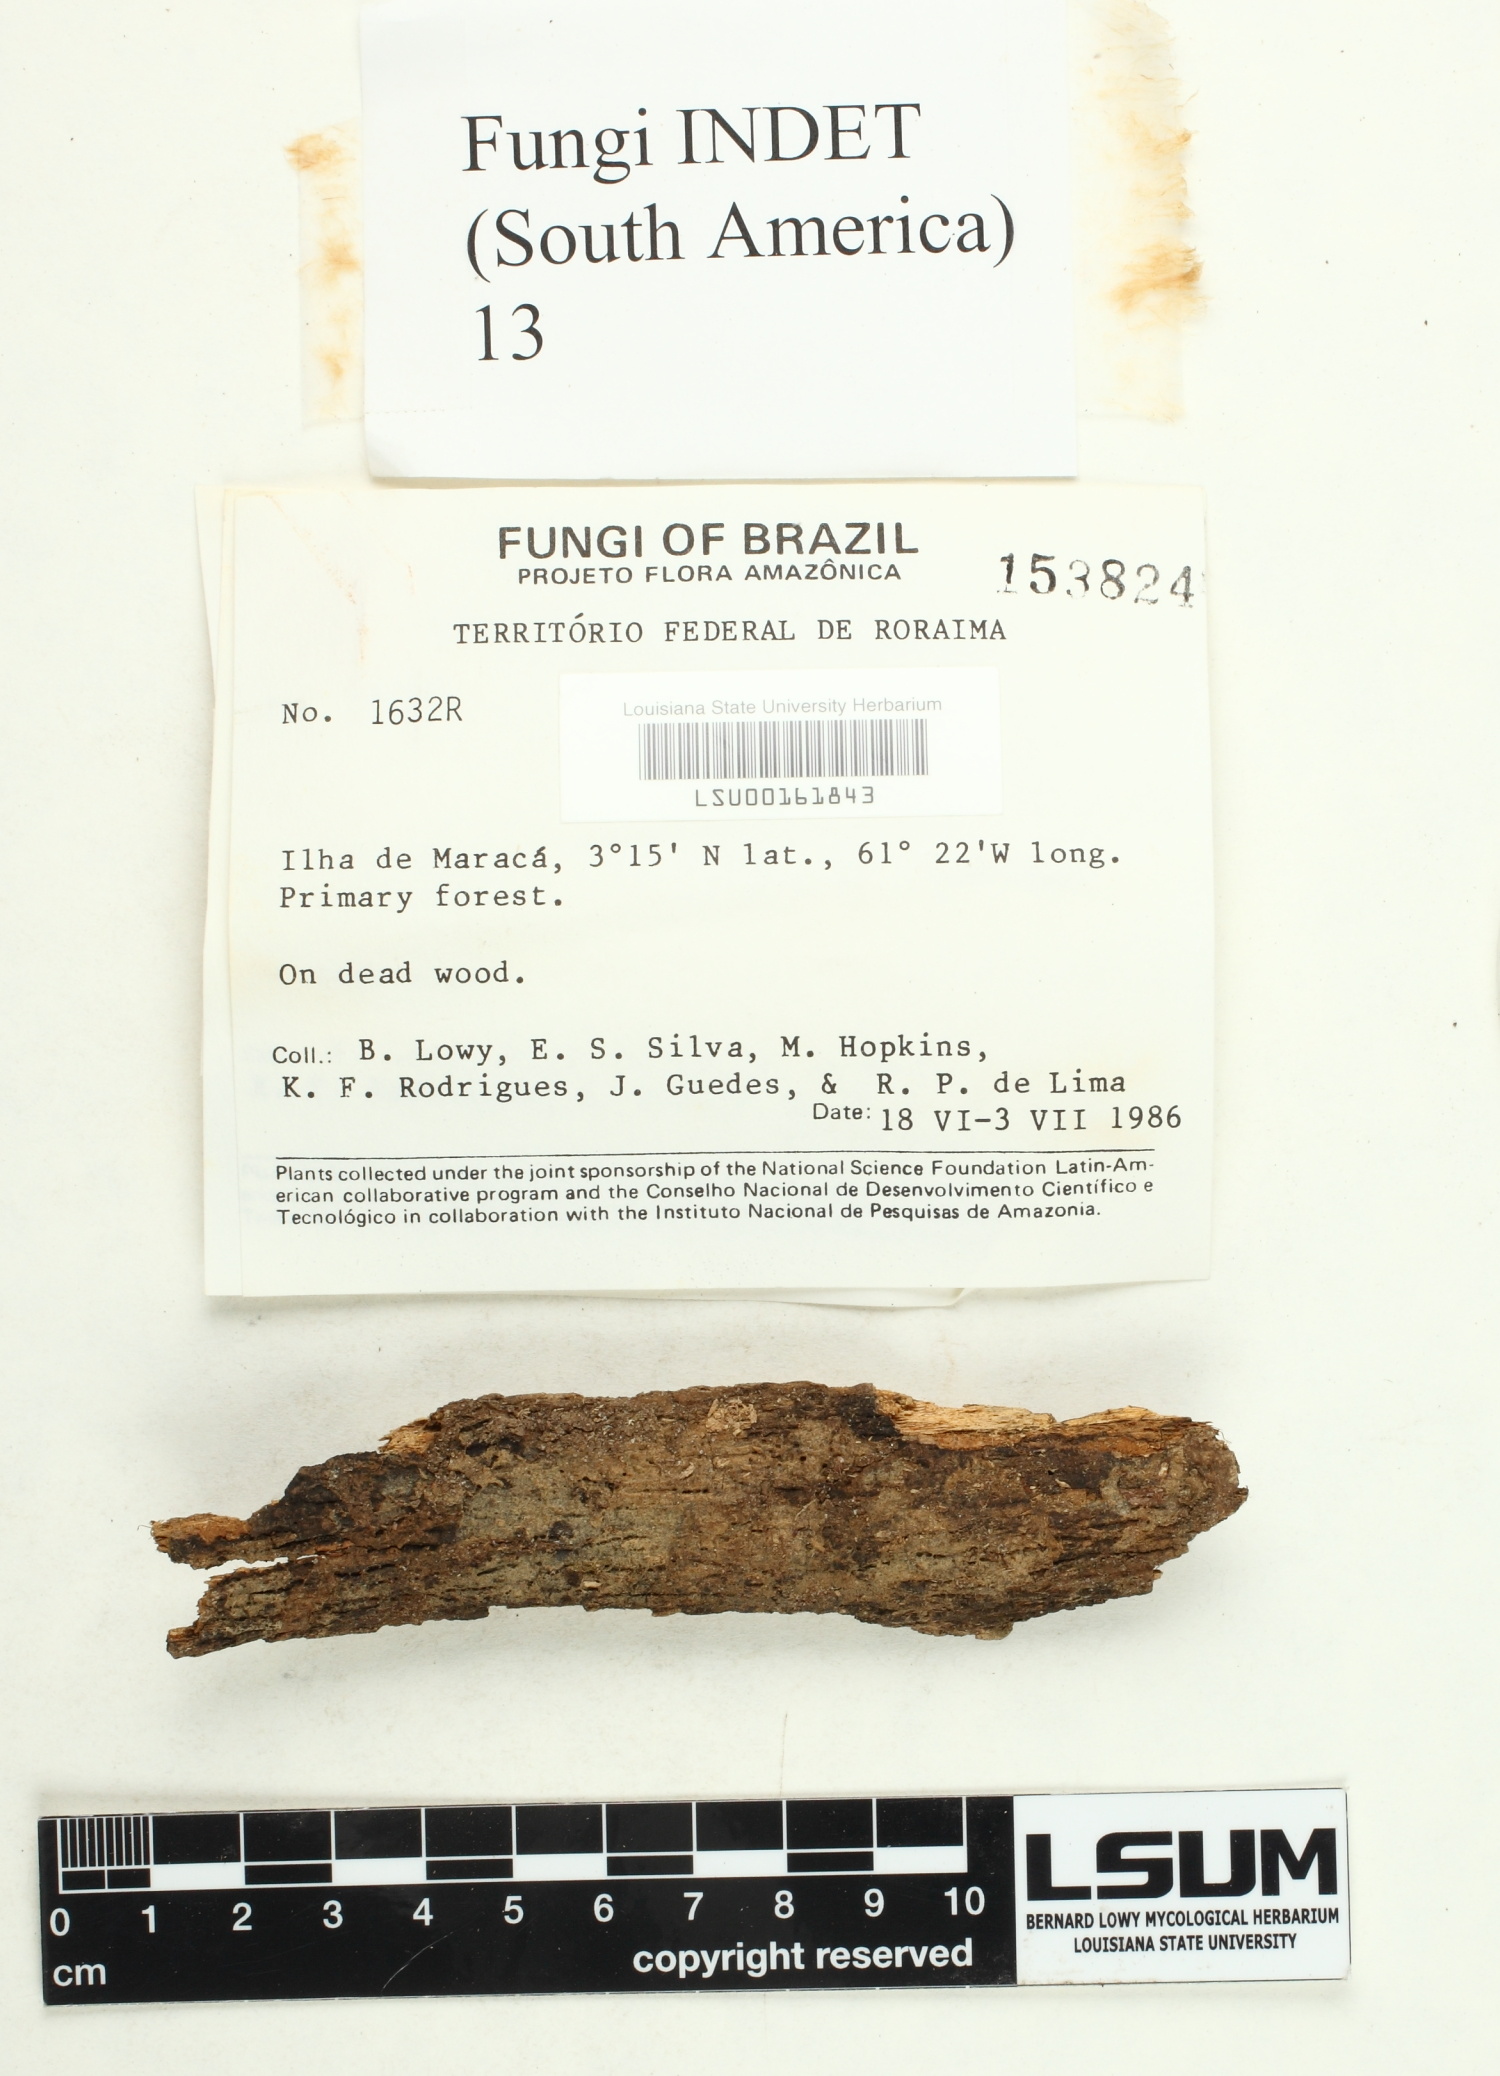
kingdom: Fungi
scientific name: Fungi
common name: Fungi
